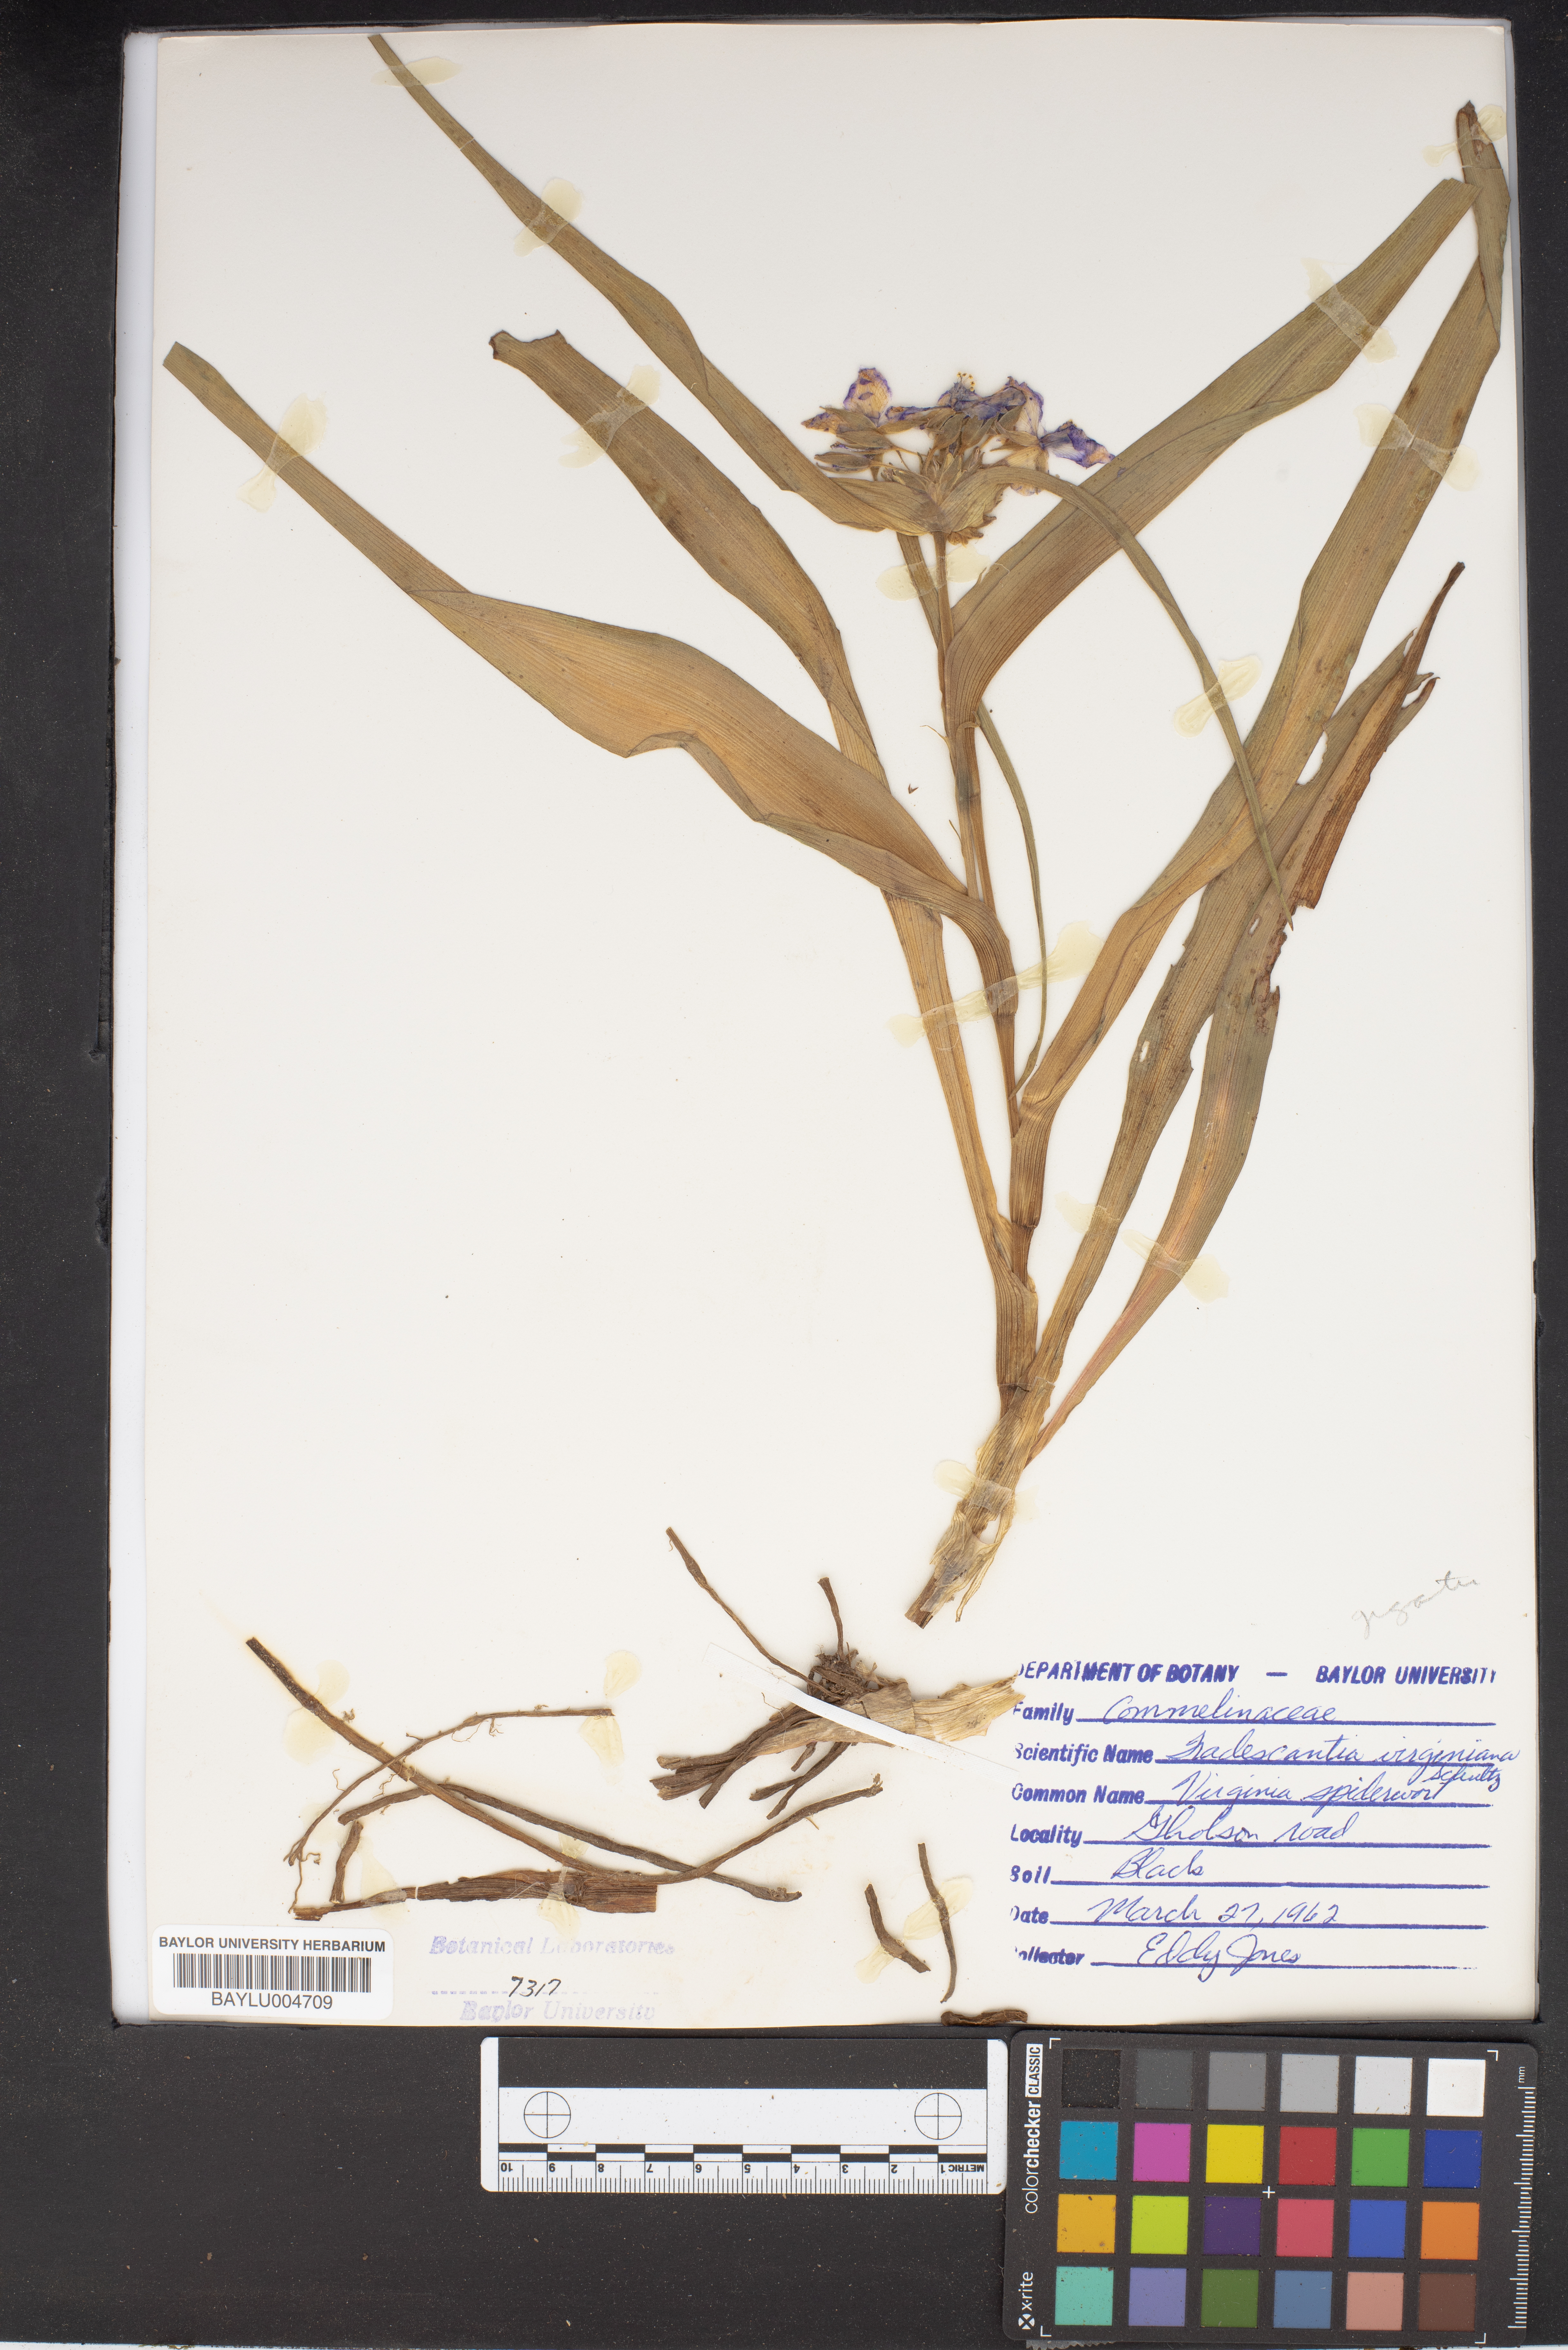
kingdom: Plantae
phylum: Tracheophyta
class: Liliopsida
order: Commelinales
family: Commelinaceae
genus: Tradescantia
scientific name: Tradescantia virginiana
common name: Spiderwort
